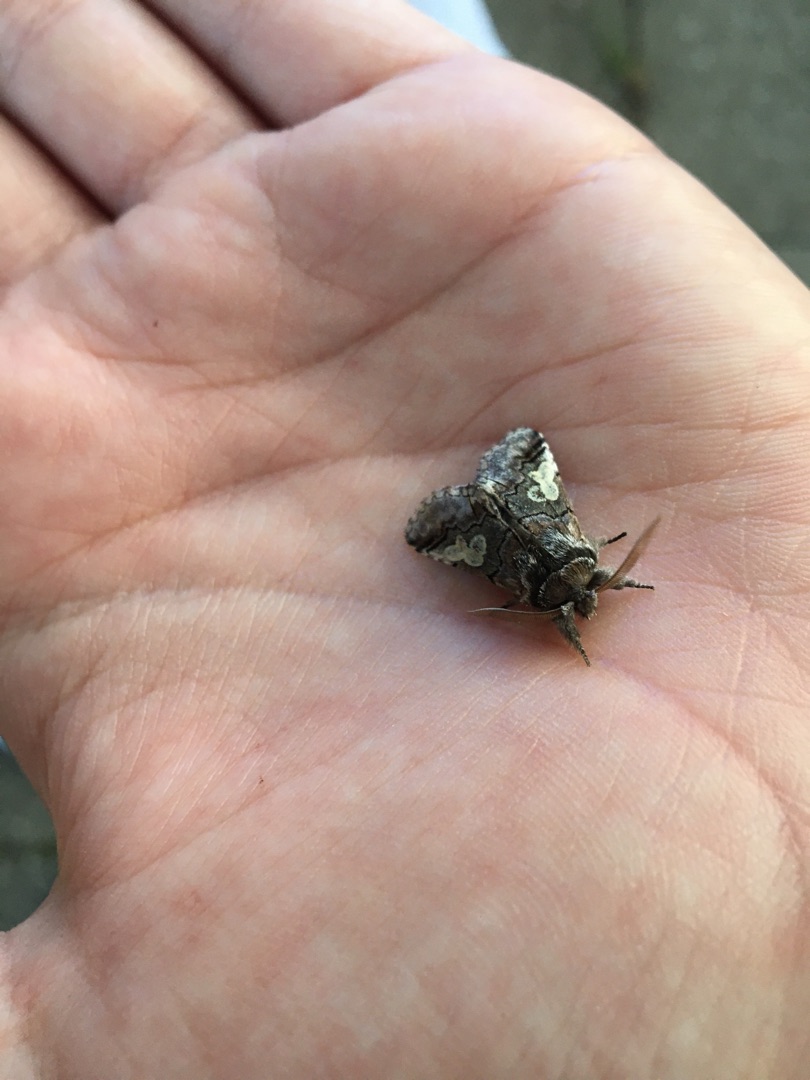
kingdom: Animalia
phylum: Arthropoda
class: Insecta
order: Lepidoptera
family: Noctuidae
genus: Diloba
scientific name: Diloba caeruleocephala
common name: Blåhoved
